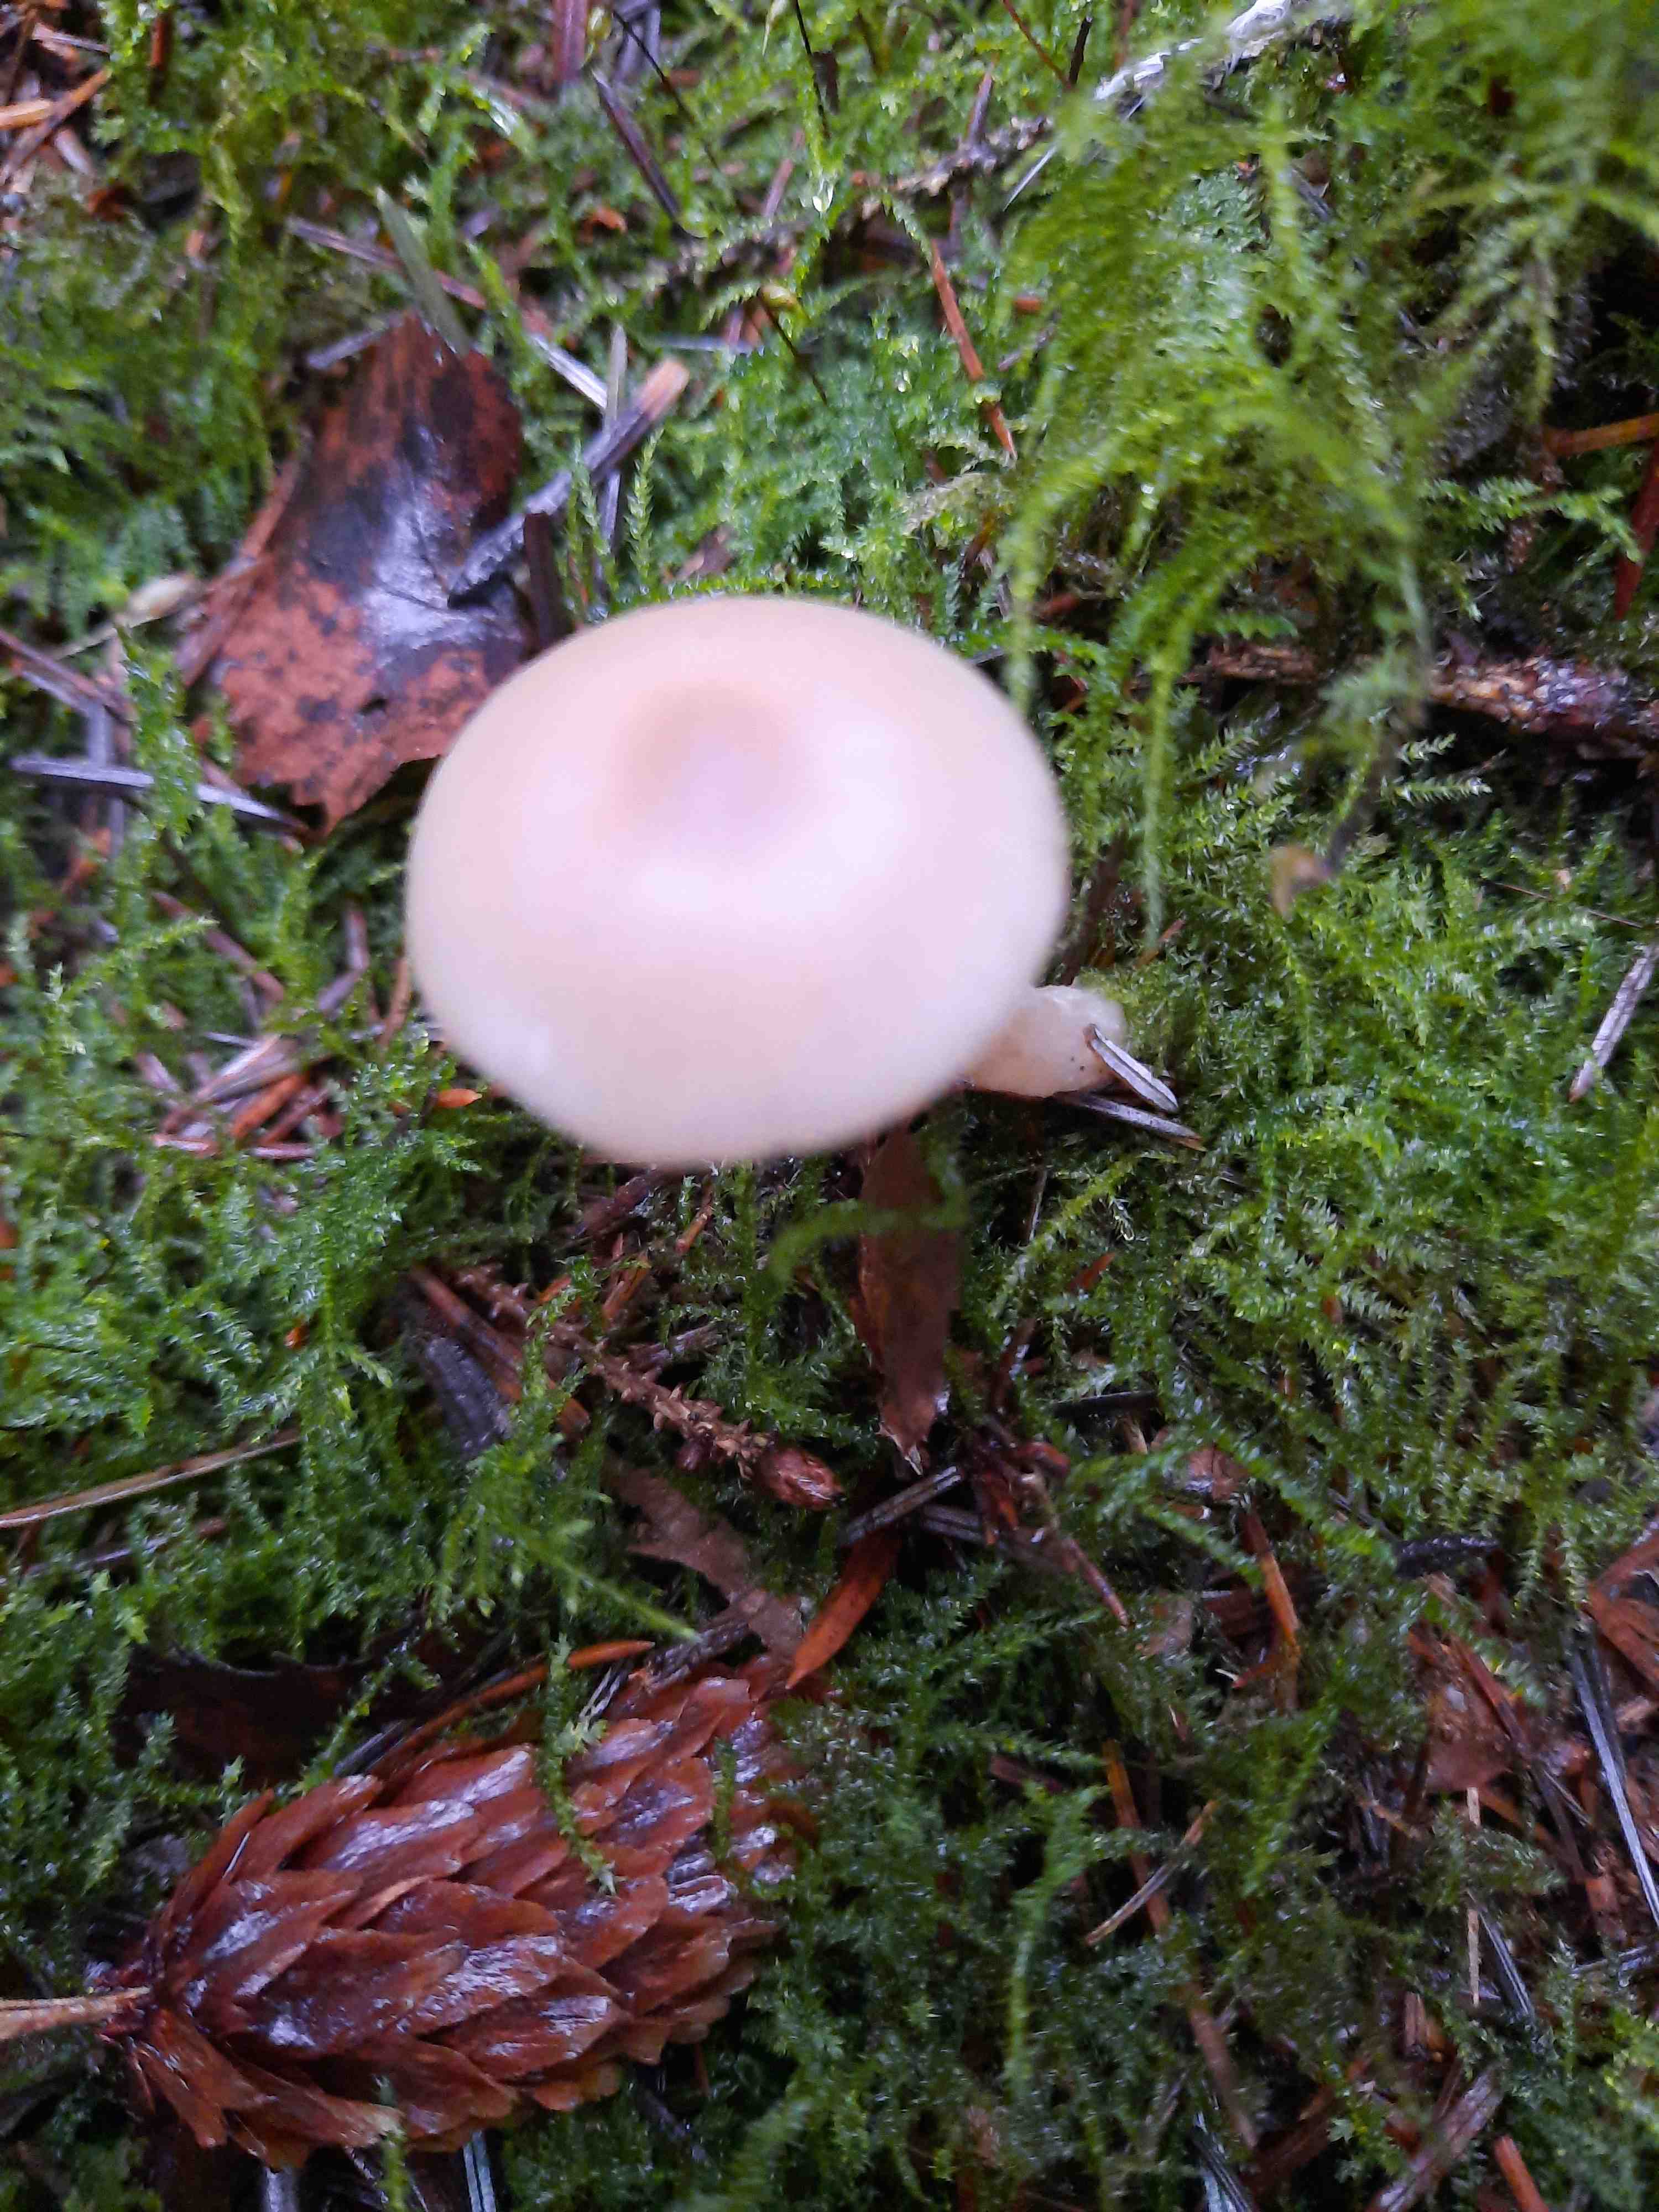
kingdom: Fungi
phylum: Basidiomycota
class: Agaricomycetes
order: Agaricales
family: Tricholomataceae
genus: Clitocybe
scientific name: Clitocybe
